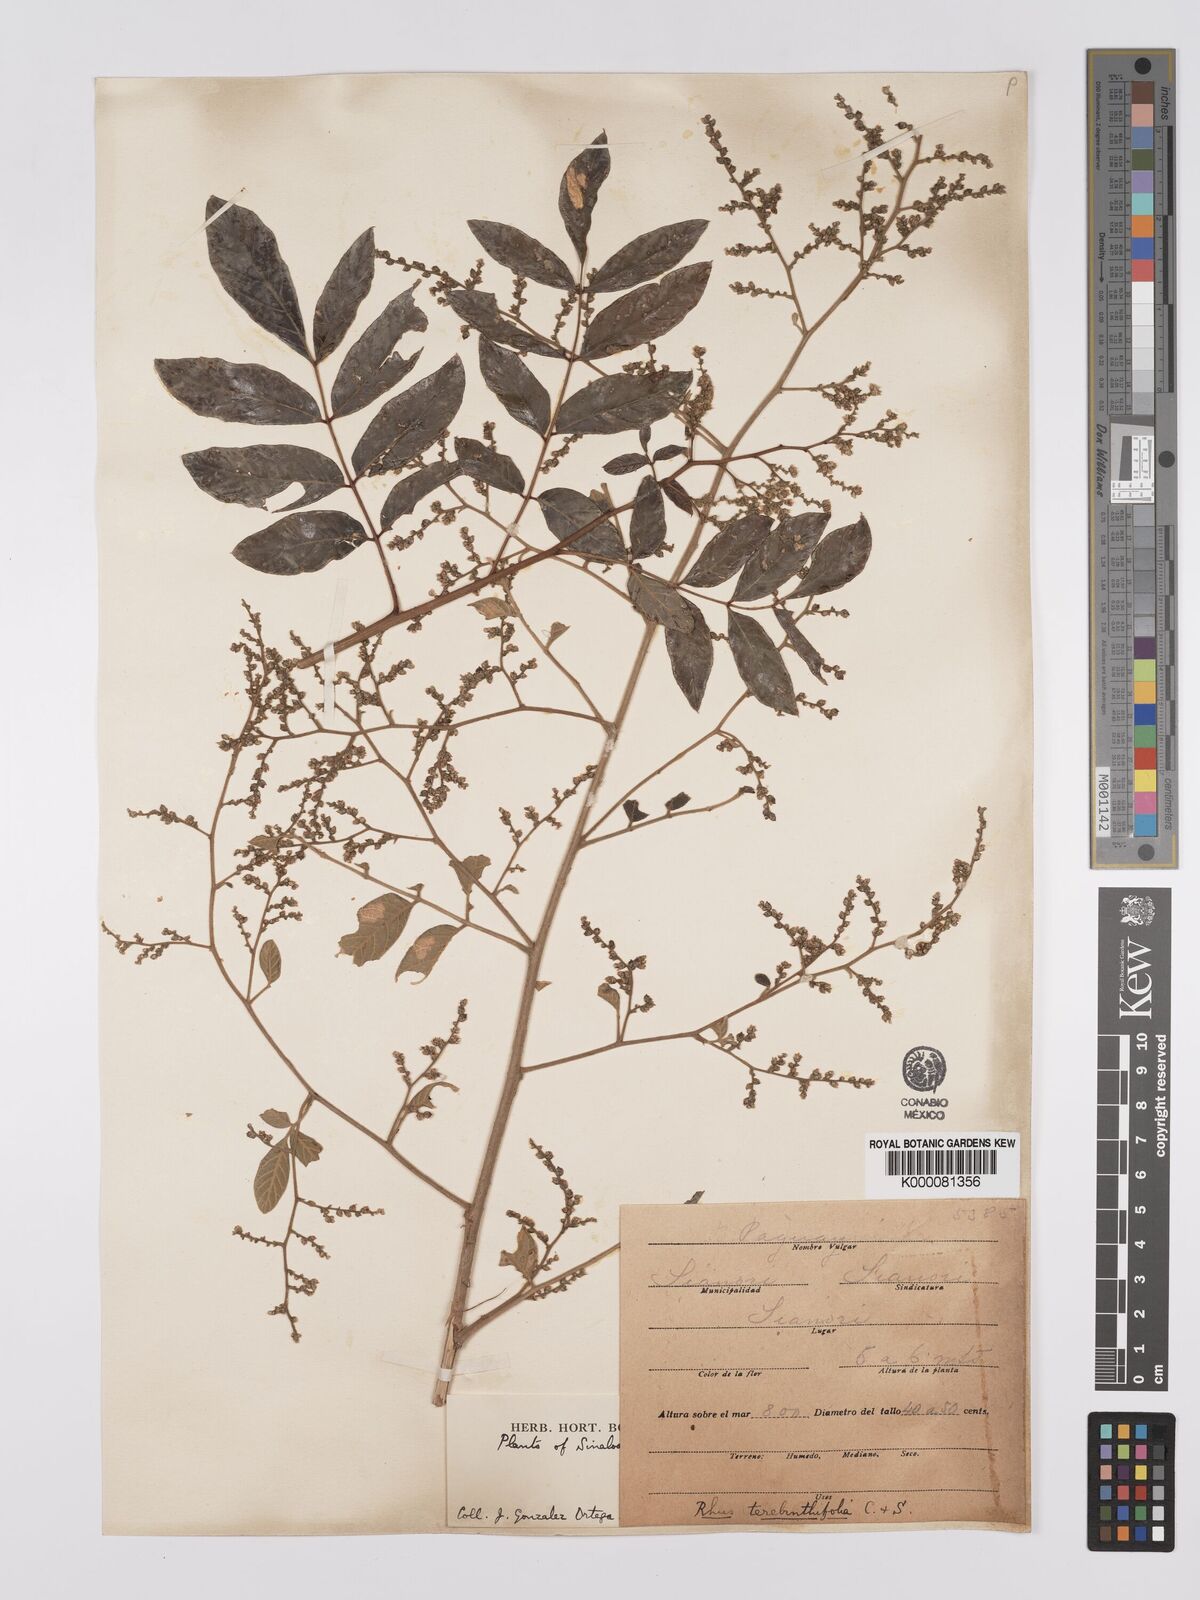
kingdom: Plantae
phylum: Tracheophyta
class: Magnoliopsida
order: Sapindales
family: Anacardiaceae
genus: Rhus
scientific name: Rhus
